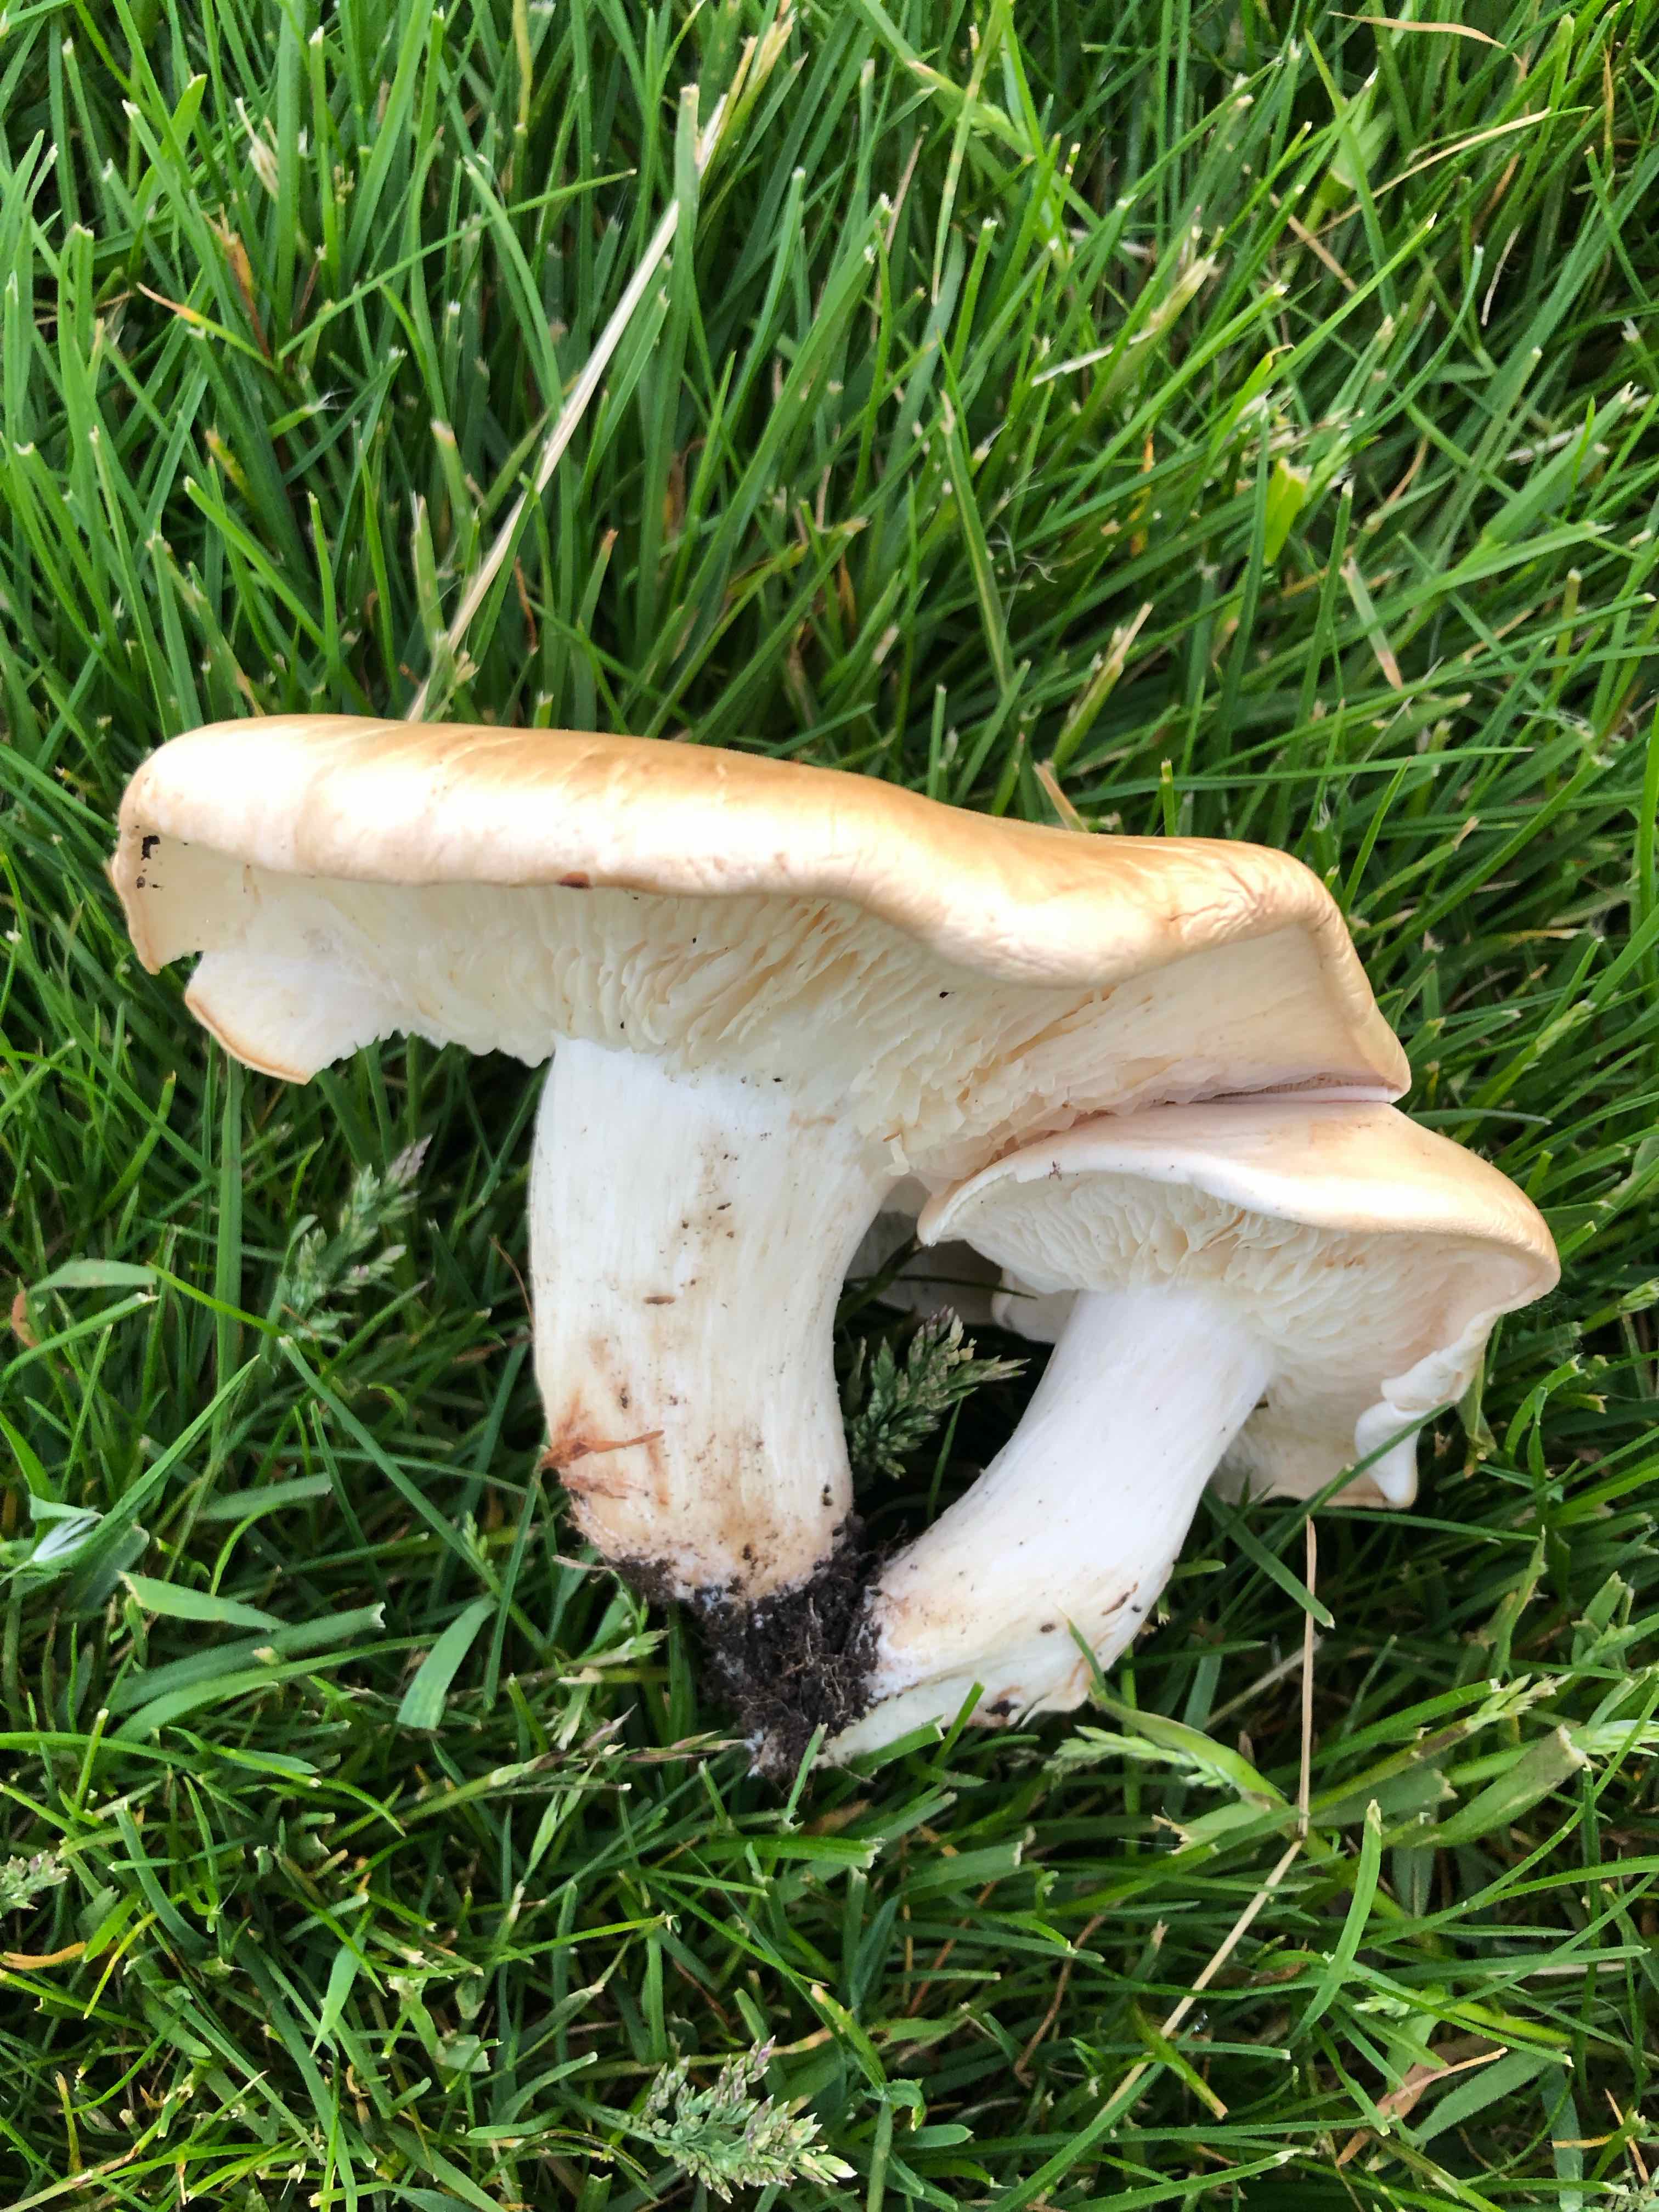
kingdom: Fungi
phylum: Basidiomycota
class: Agaricomycetes
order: Agaricales
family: Lyophyllaceae
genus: Calocybe
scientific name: Calocybe gambosa
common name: vårmusseron
